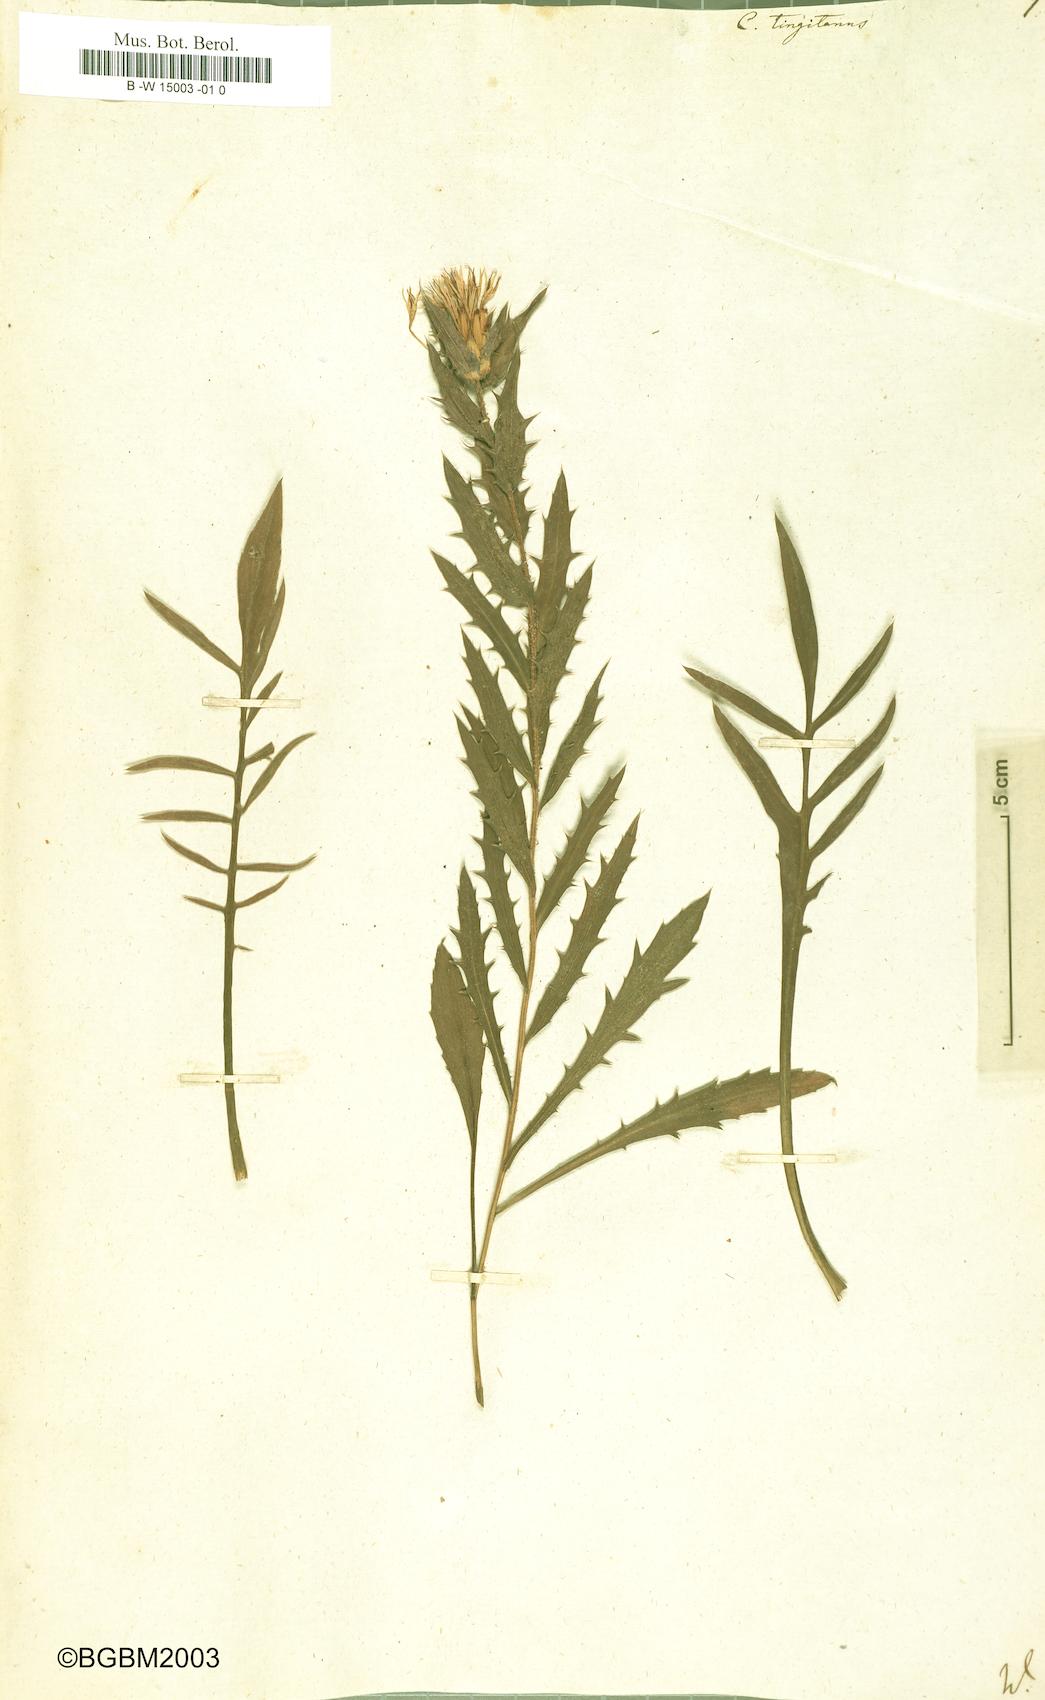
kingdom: Plantae
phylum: Tracheophyta
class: Magnoliopsida
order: Asterales
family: Asteraceae
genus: Carduncellus
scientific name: Carduncellus caeruleus
